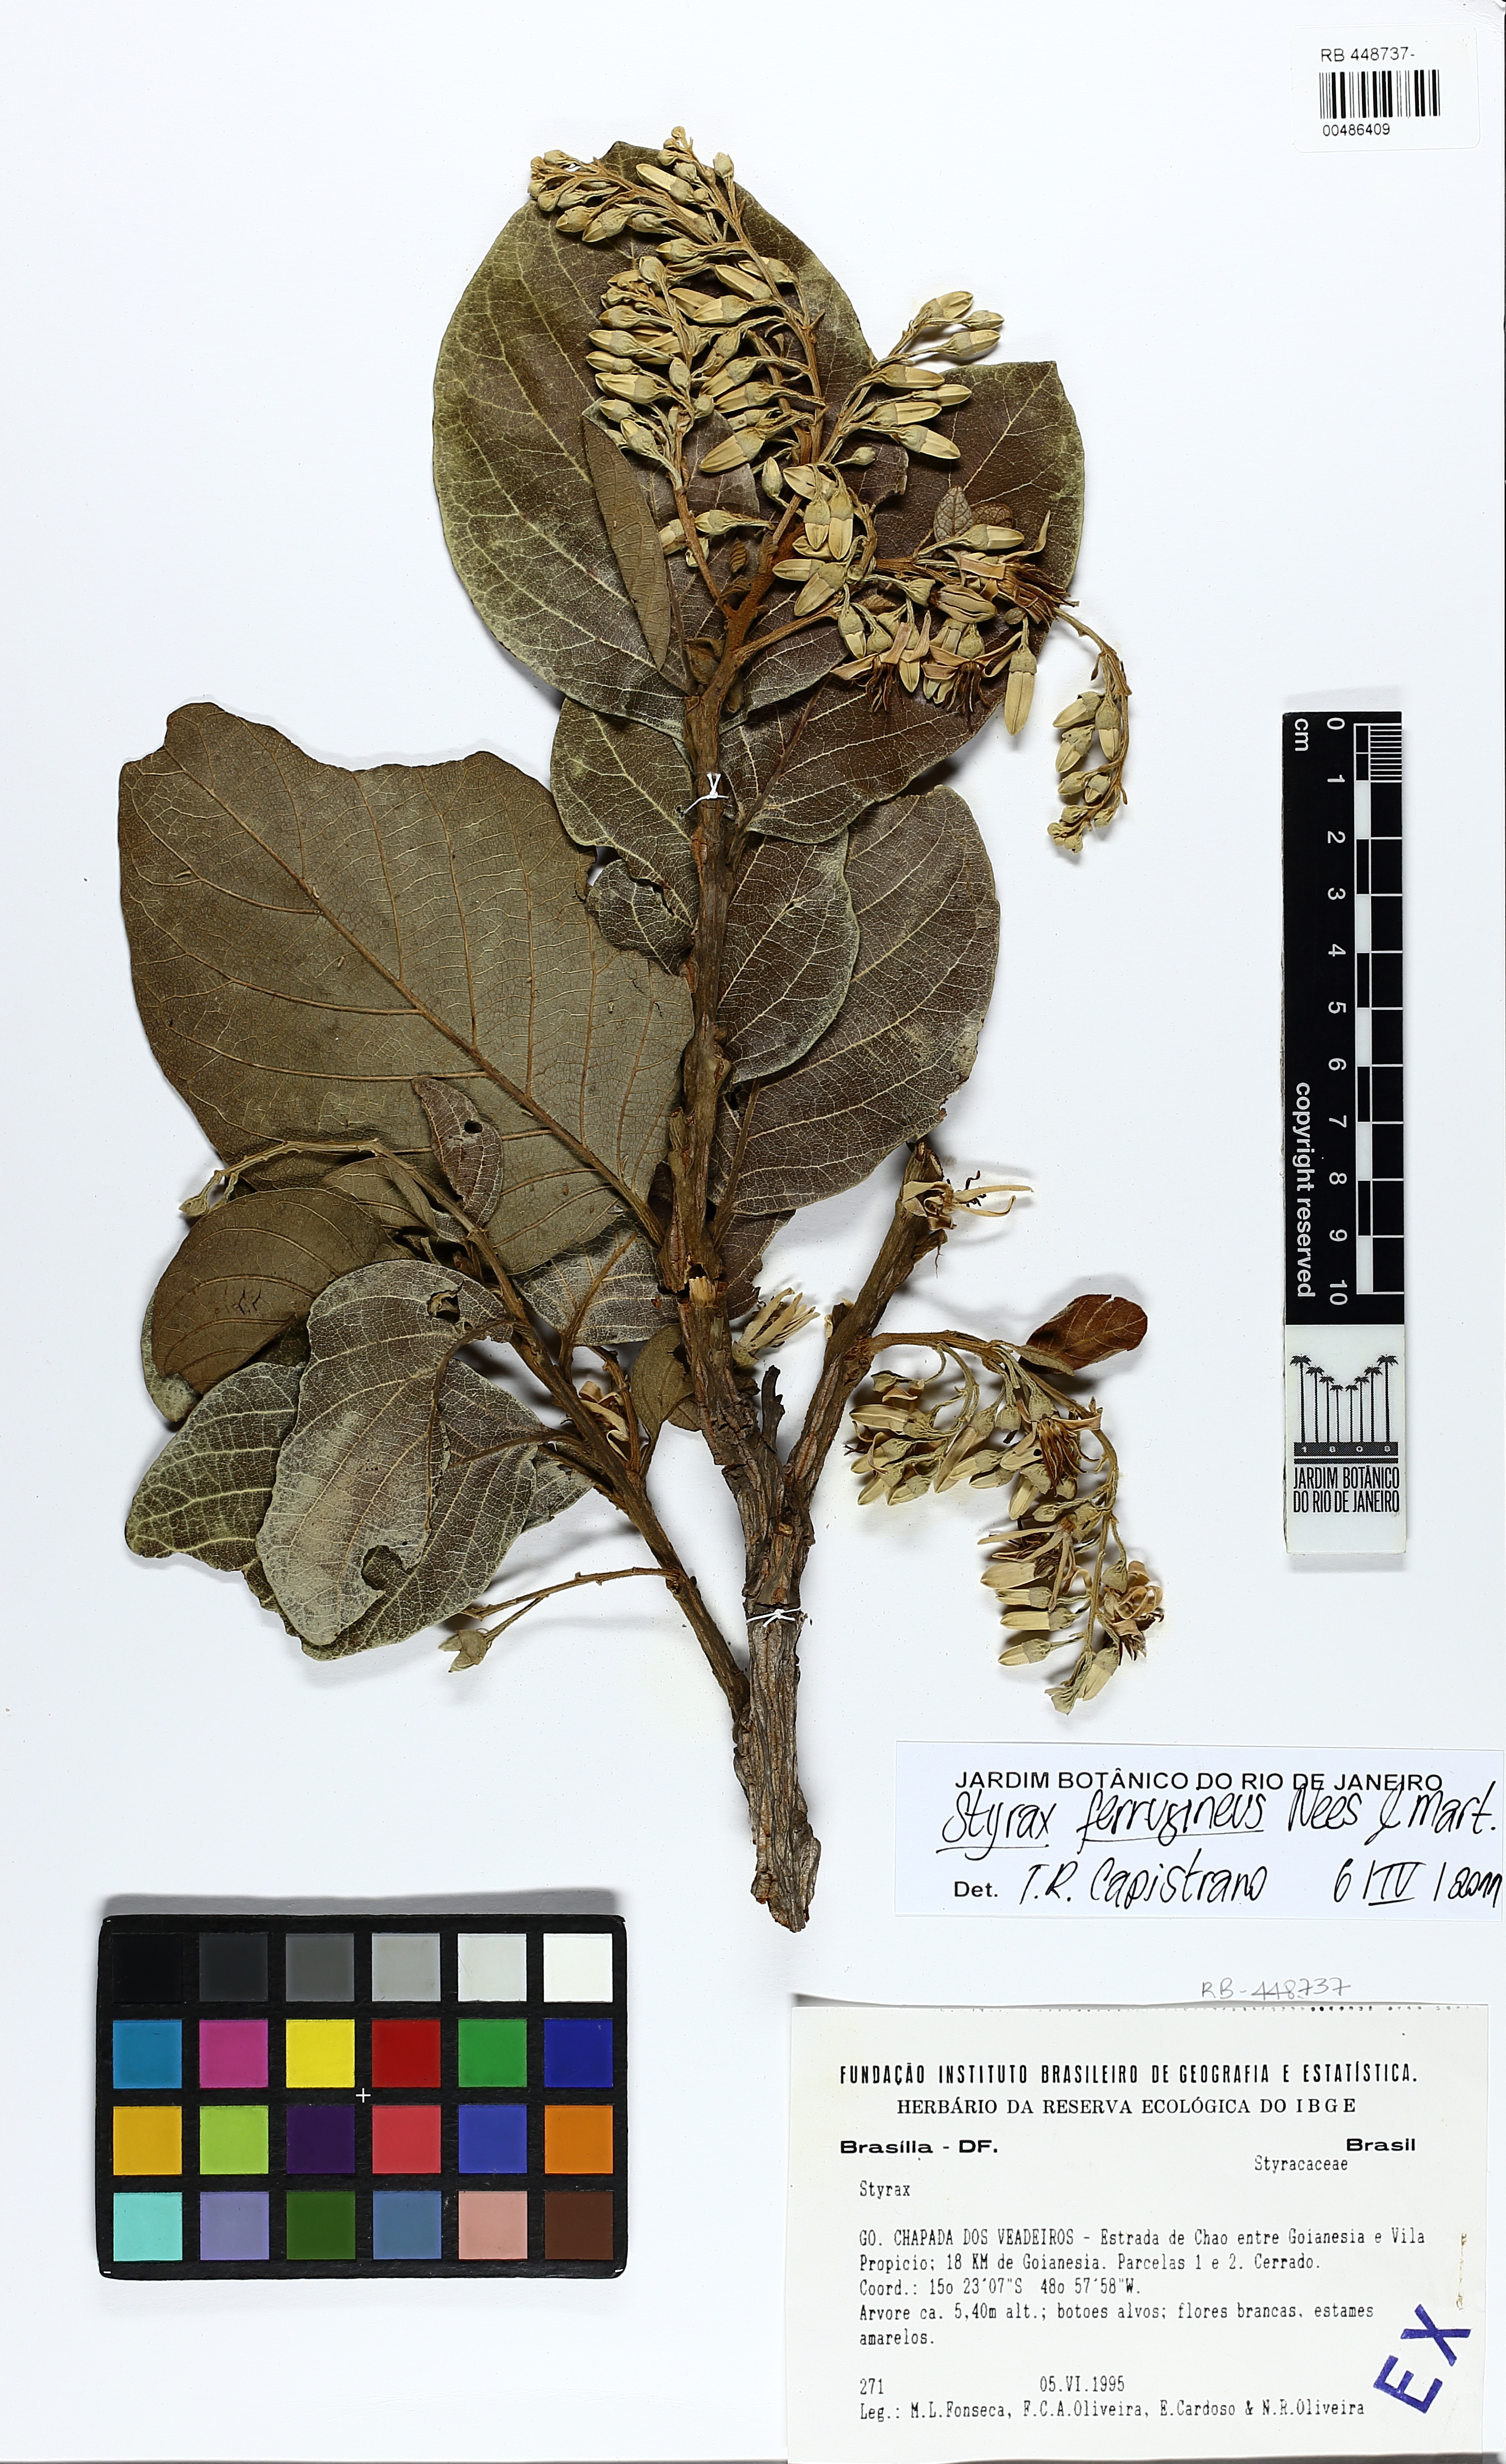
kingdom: Plantae
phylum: Tracheophyta
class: Magnoliopsida
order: Ericales
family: Styracaceae
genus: Styrax
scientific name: Styrax ferrugineus
